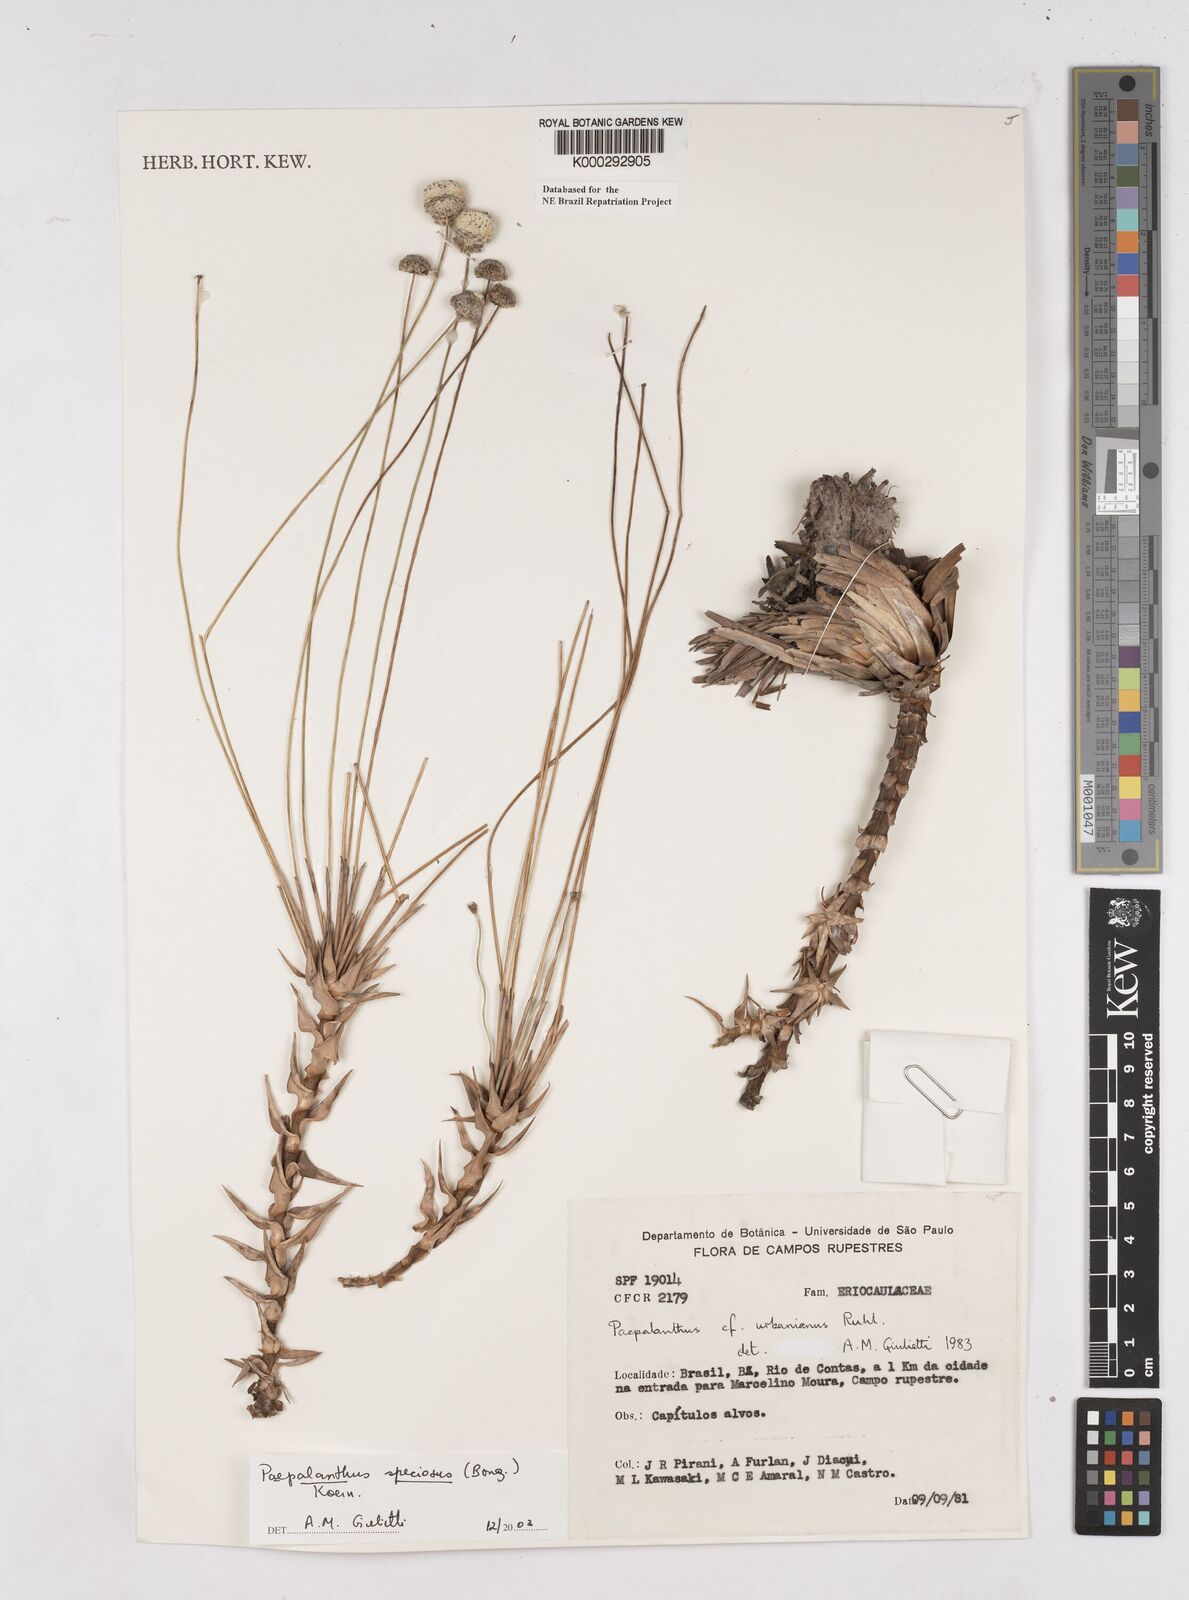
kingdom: Plantae
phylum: Tracheophyta
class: Liliopsida
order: Poales
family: Eriocaulaceae
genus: Paepalanthus
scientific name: Paepalanthus
